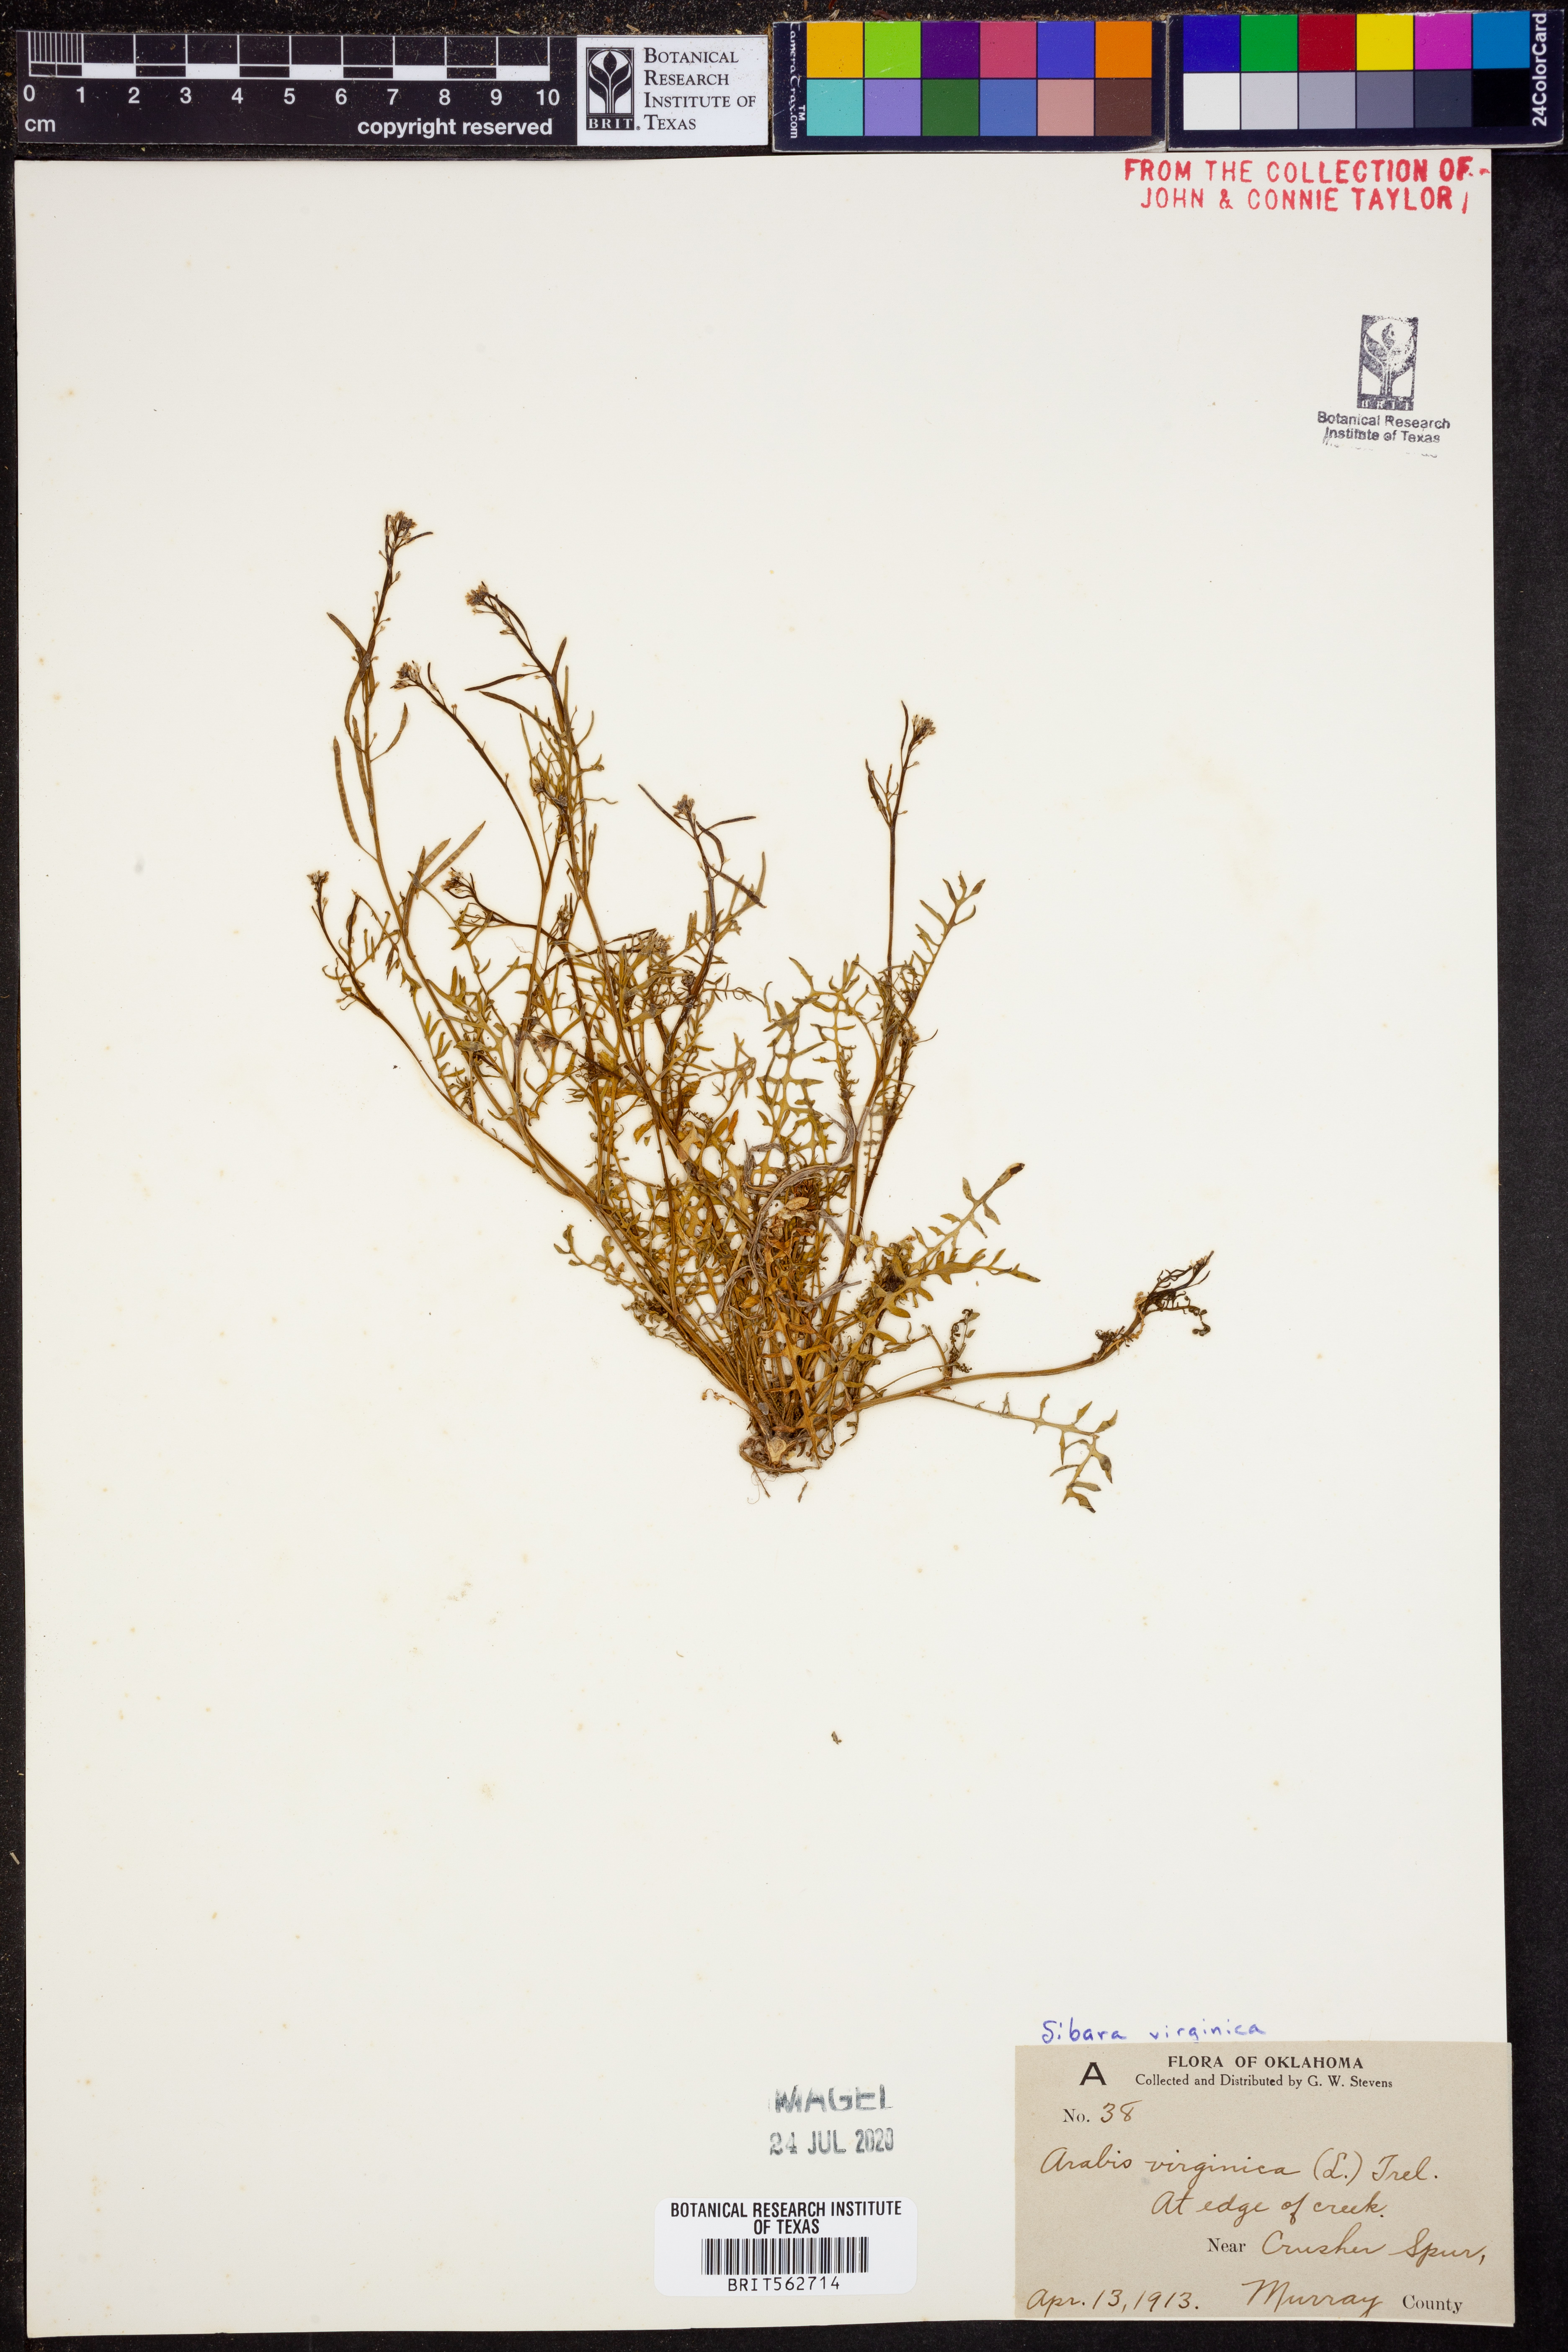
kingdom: Plantae
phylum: Tracheophyta
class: Magnoliopsida
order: Brassicales
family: Brassicaceae
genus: Planodes
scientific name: Planodes virginicum
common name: Virginia cress
